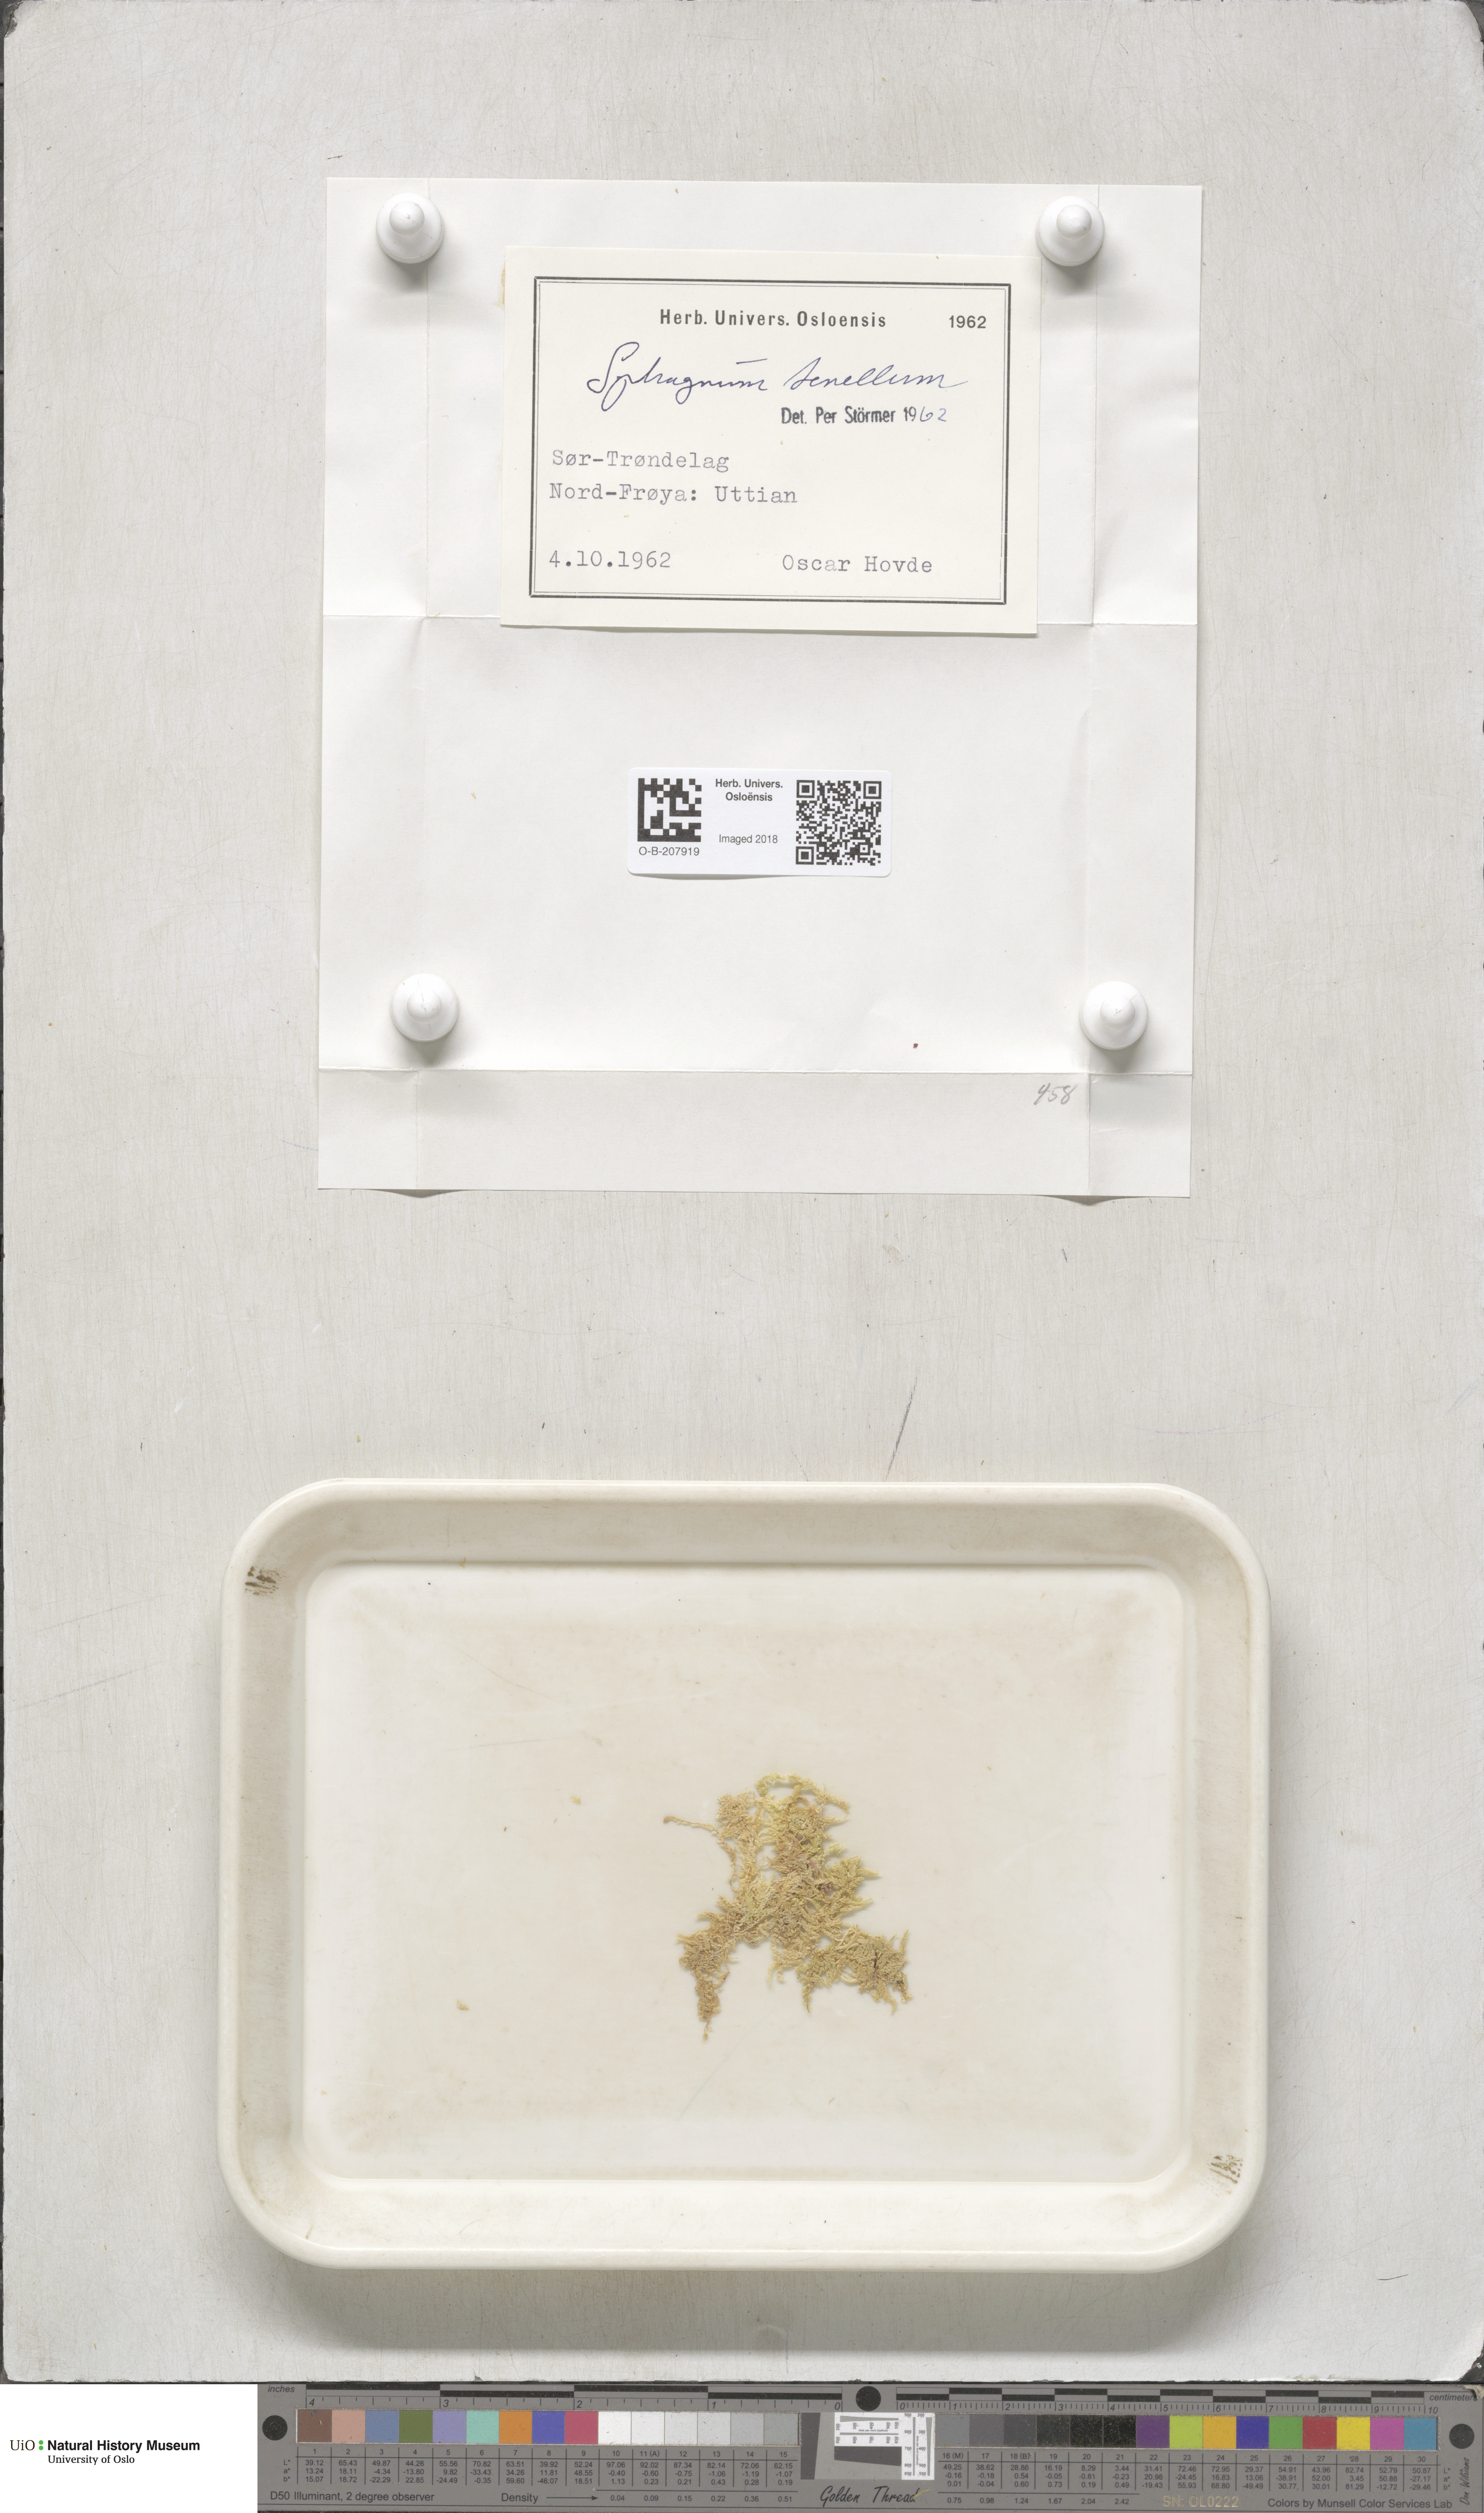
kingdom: Plantae
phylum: Bryophyta
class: Sphagnopsida
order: Sphagnales
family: Sphagnaceae
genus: Sphagnum
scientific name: Sphagnum tenellum
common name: Soft bog-moss
